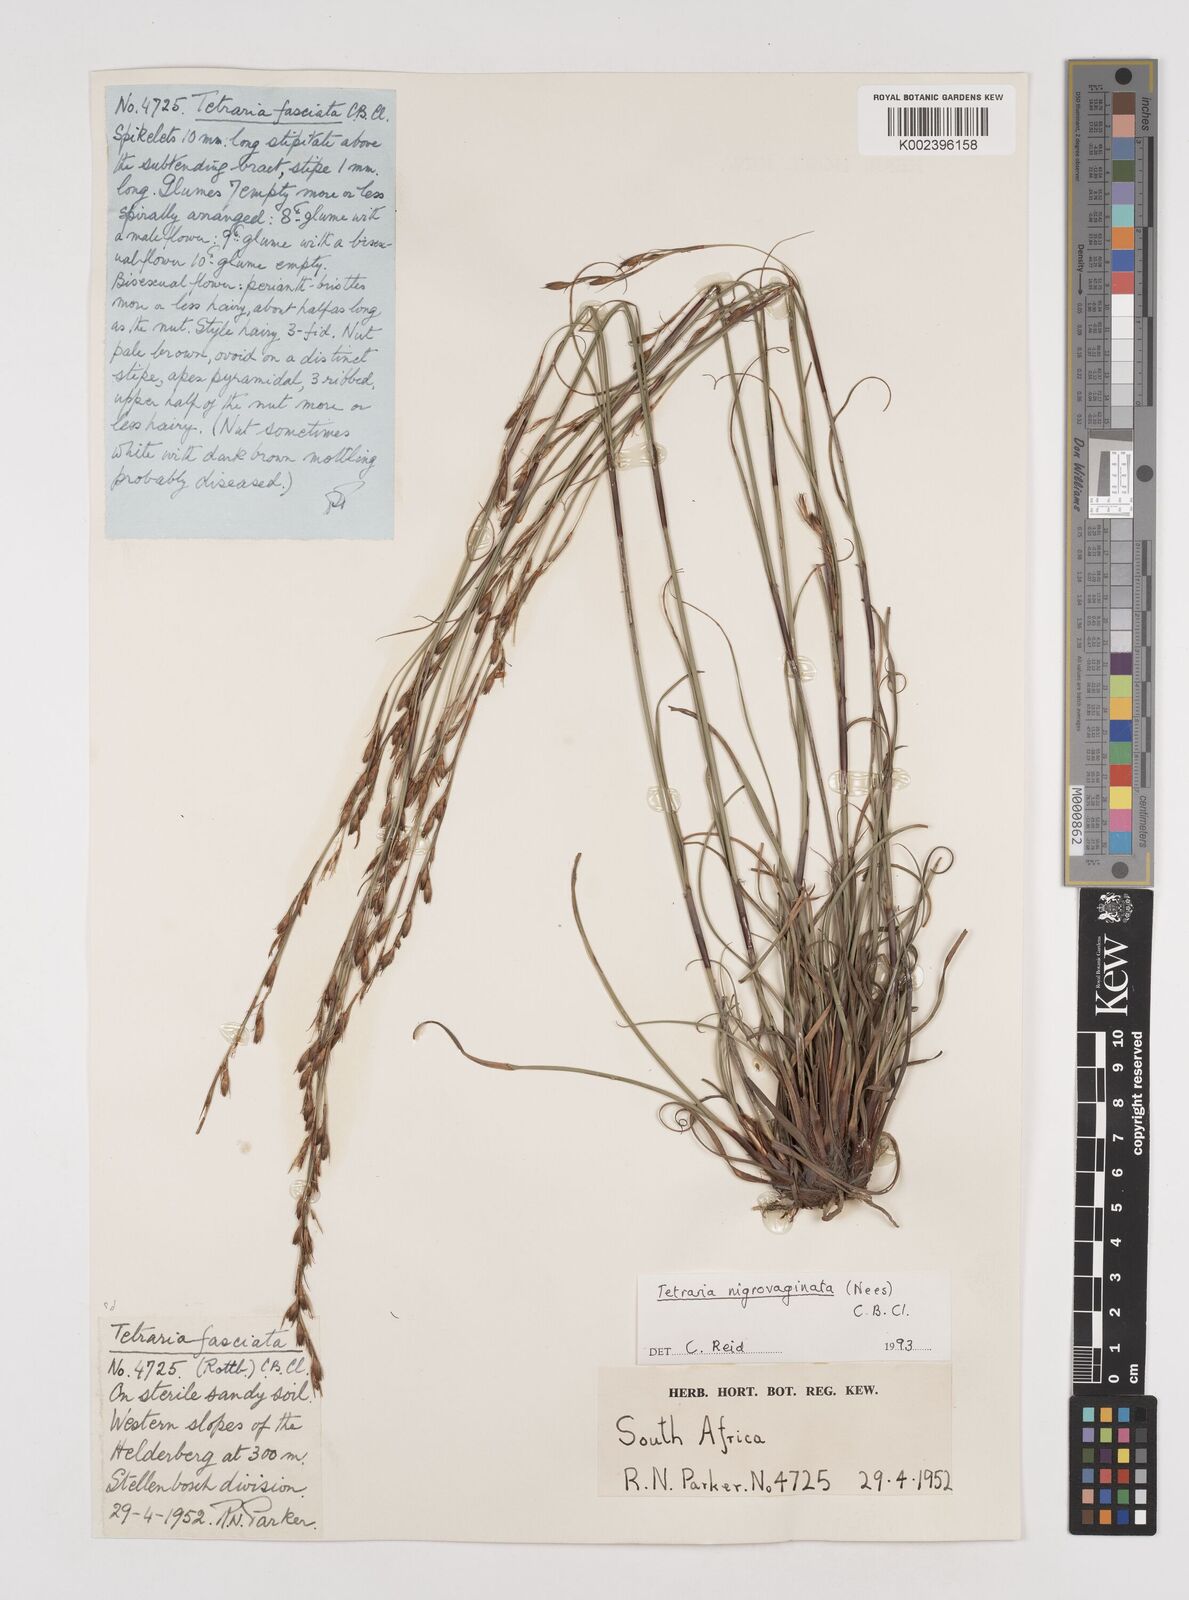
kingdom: Plantae
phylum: Tracheophyta
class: Liliopsida
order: Poales
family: Cyperaceae
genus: Tetraria
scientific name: Tetraria nigrovaginata
